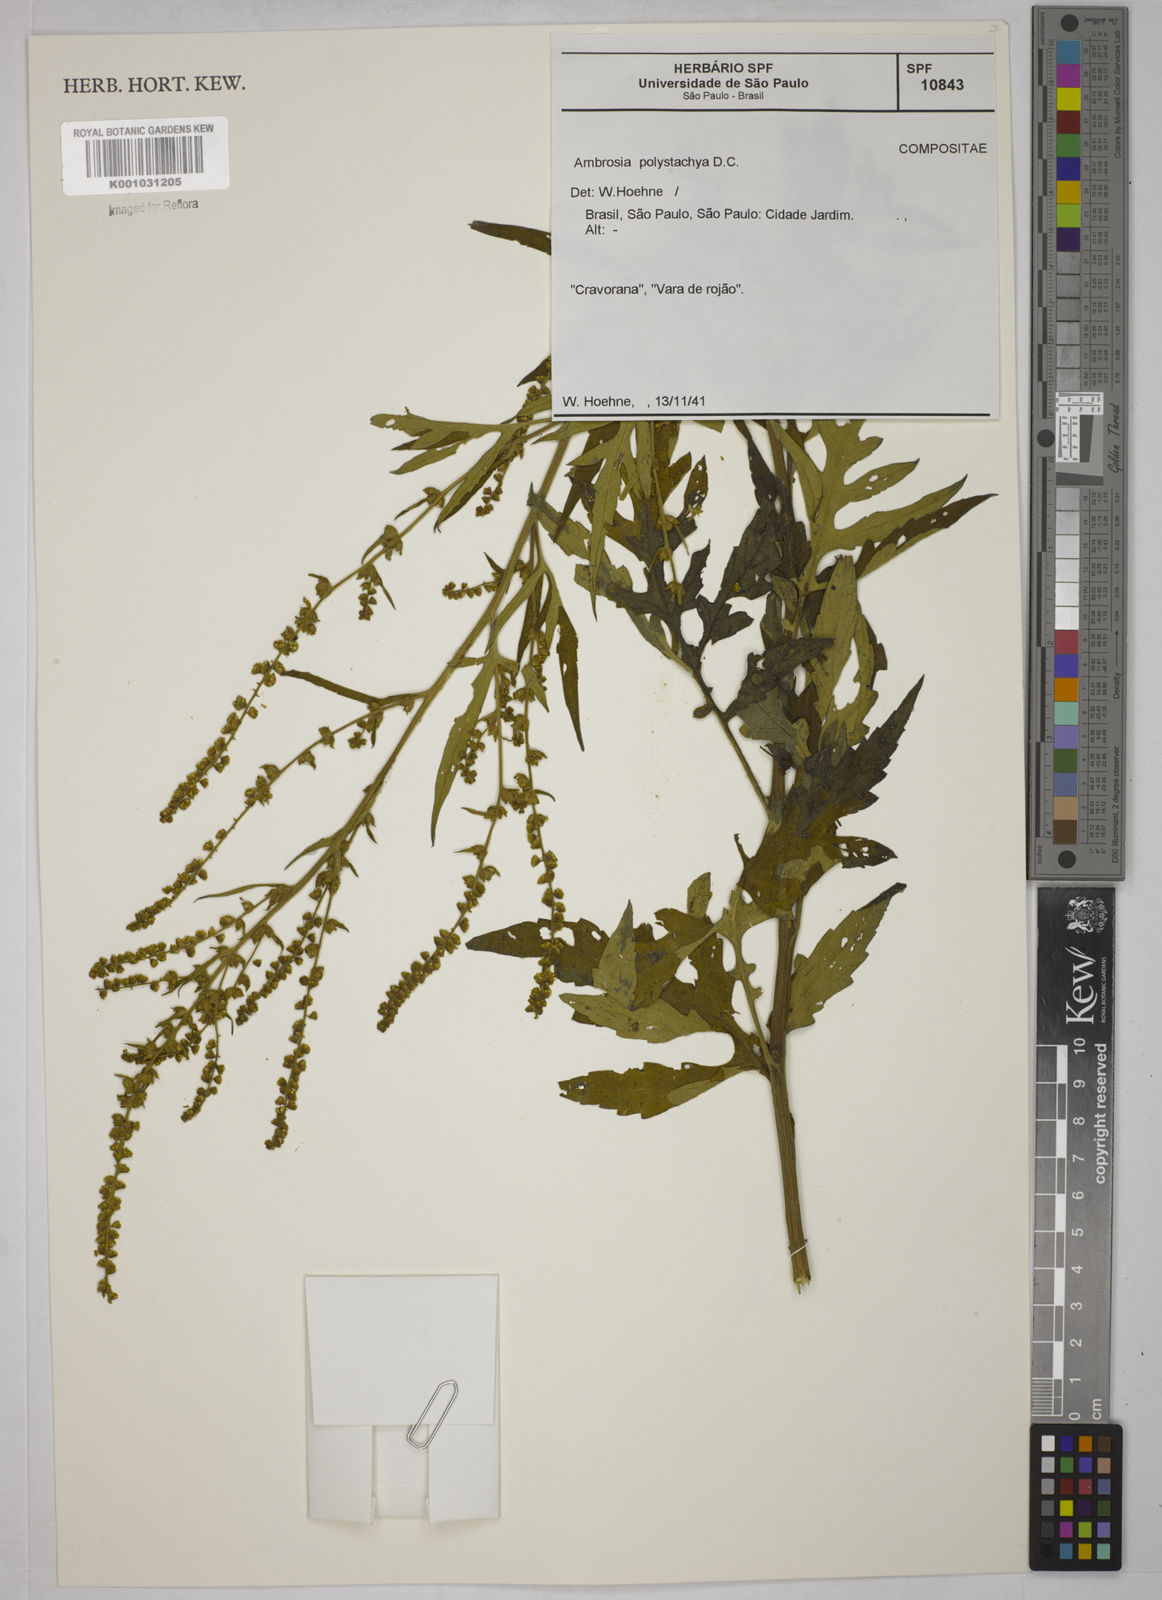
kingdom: Plantae
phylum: Tracheophyta
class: Magnoliopsida
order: Asterales
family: Asteraceae
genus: Ambrosia
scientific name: Ambrosia polystachya
